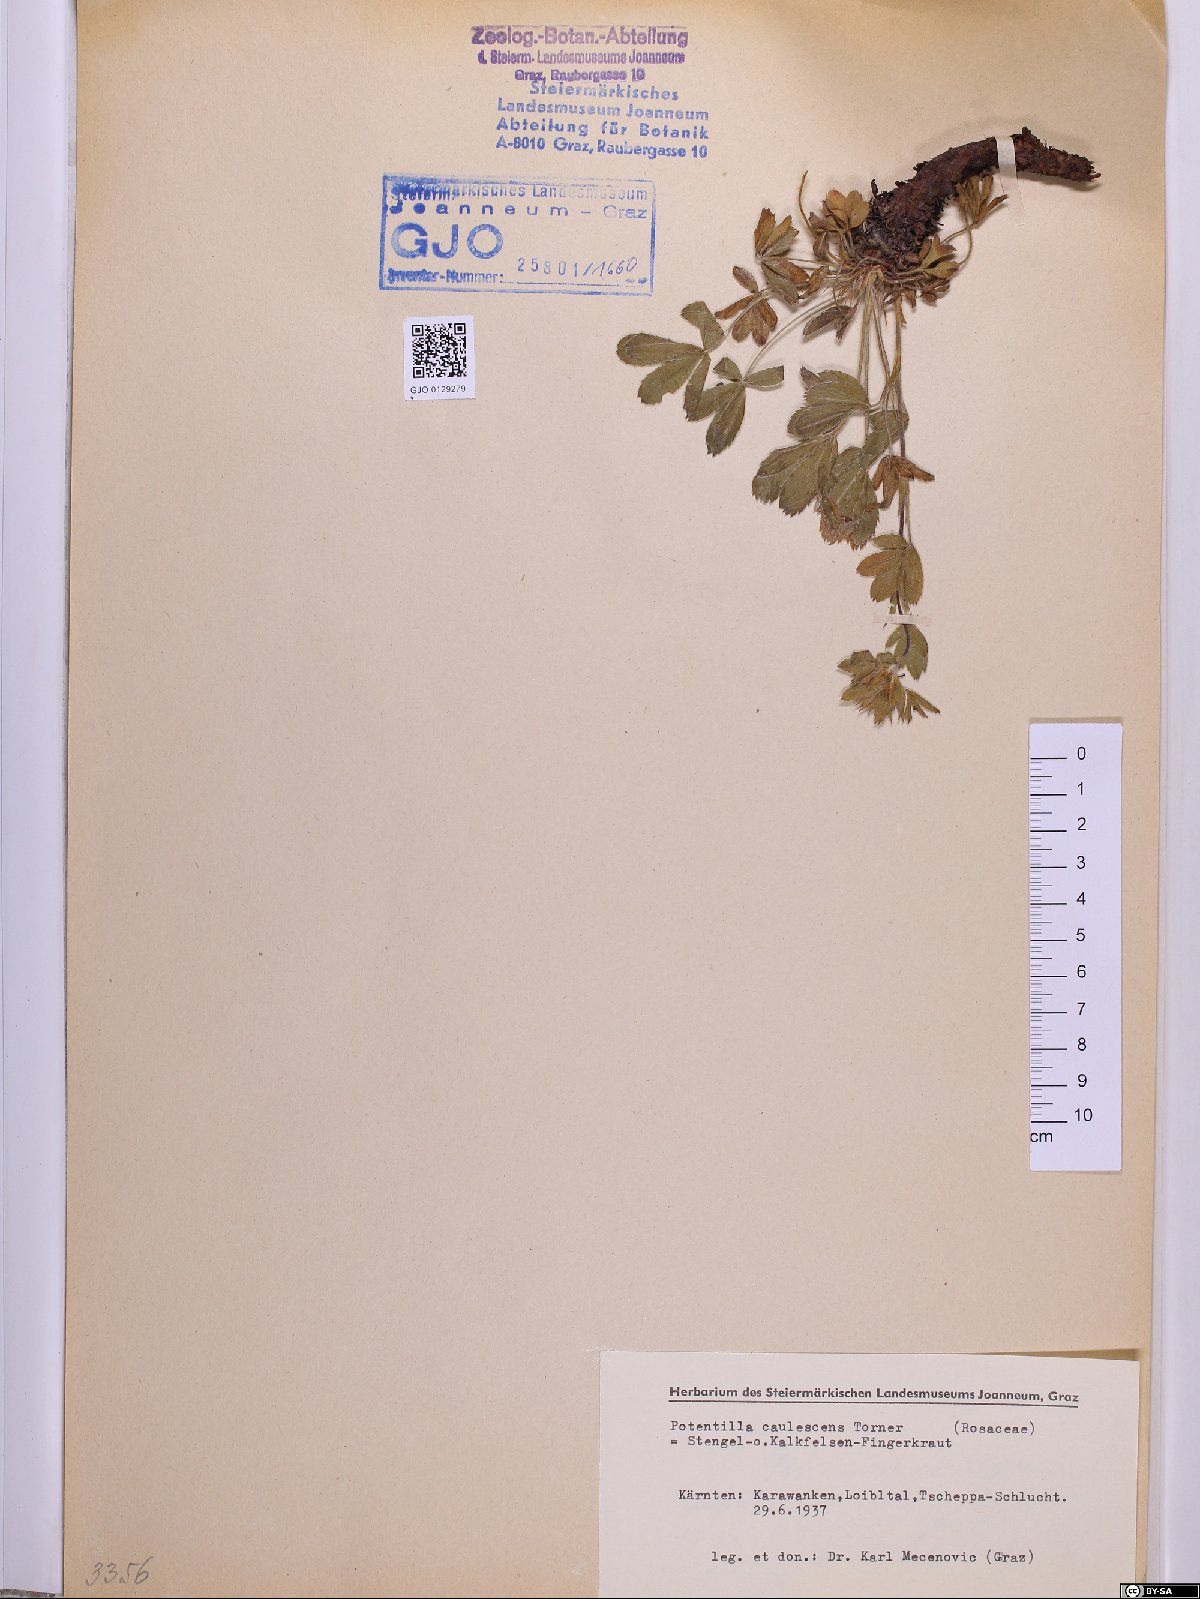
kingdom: Plantae
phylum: Tracheophyta
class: Magnoliopsida
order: Rosales
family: Rosaceae
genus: Potentilla
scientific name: Potentilla caulescens
